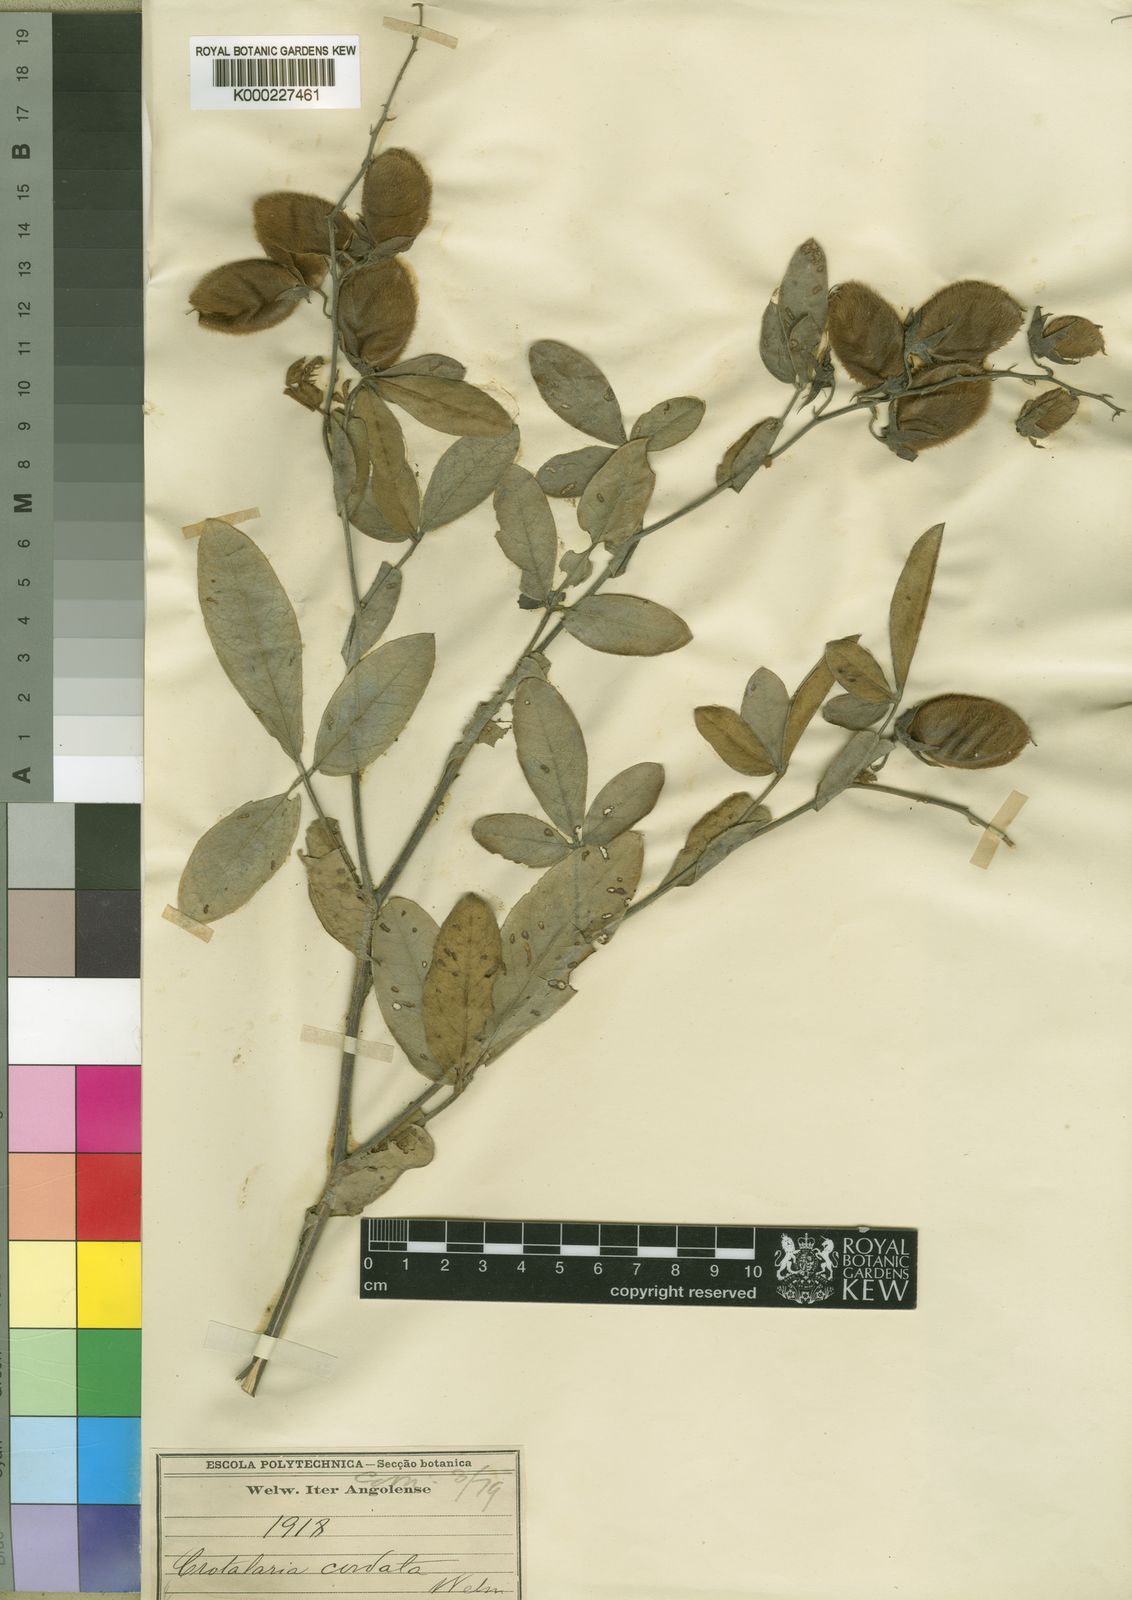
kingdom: Plantae
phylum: Tracheophyta
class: Magnoliopsida
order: Fabales
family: Fabaceae
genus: Crotalaria
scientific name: Crotalaria cordata
